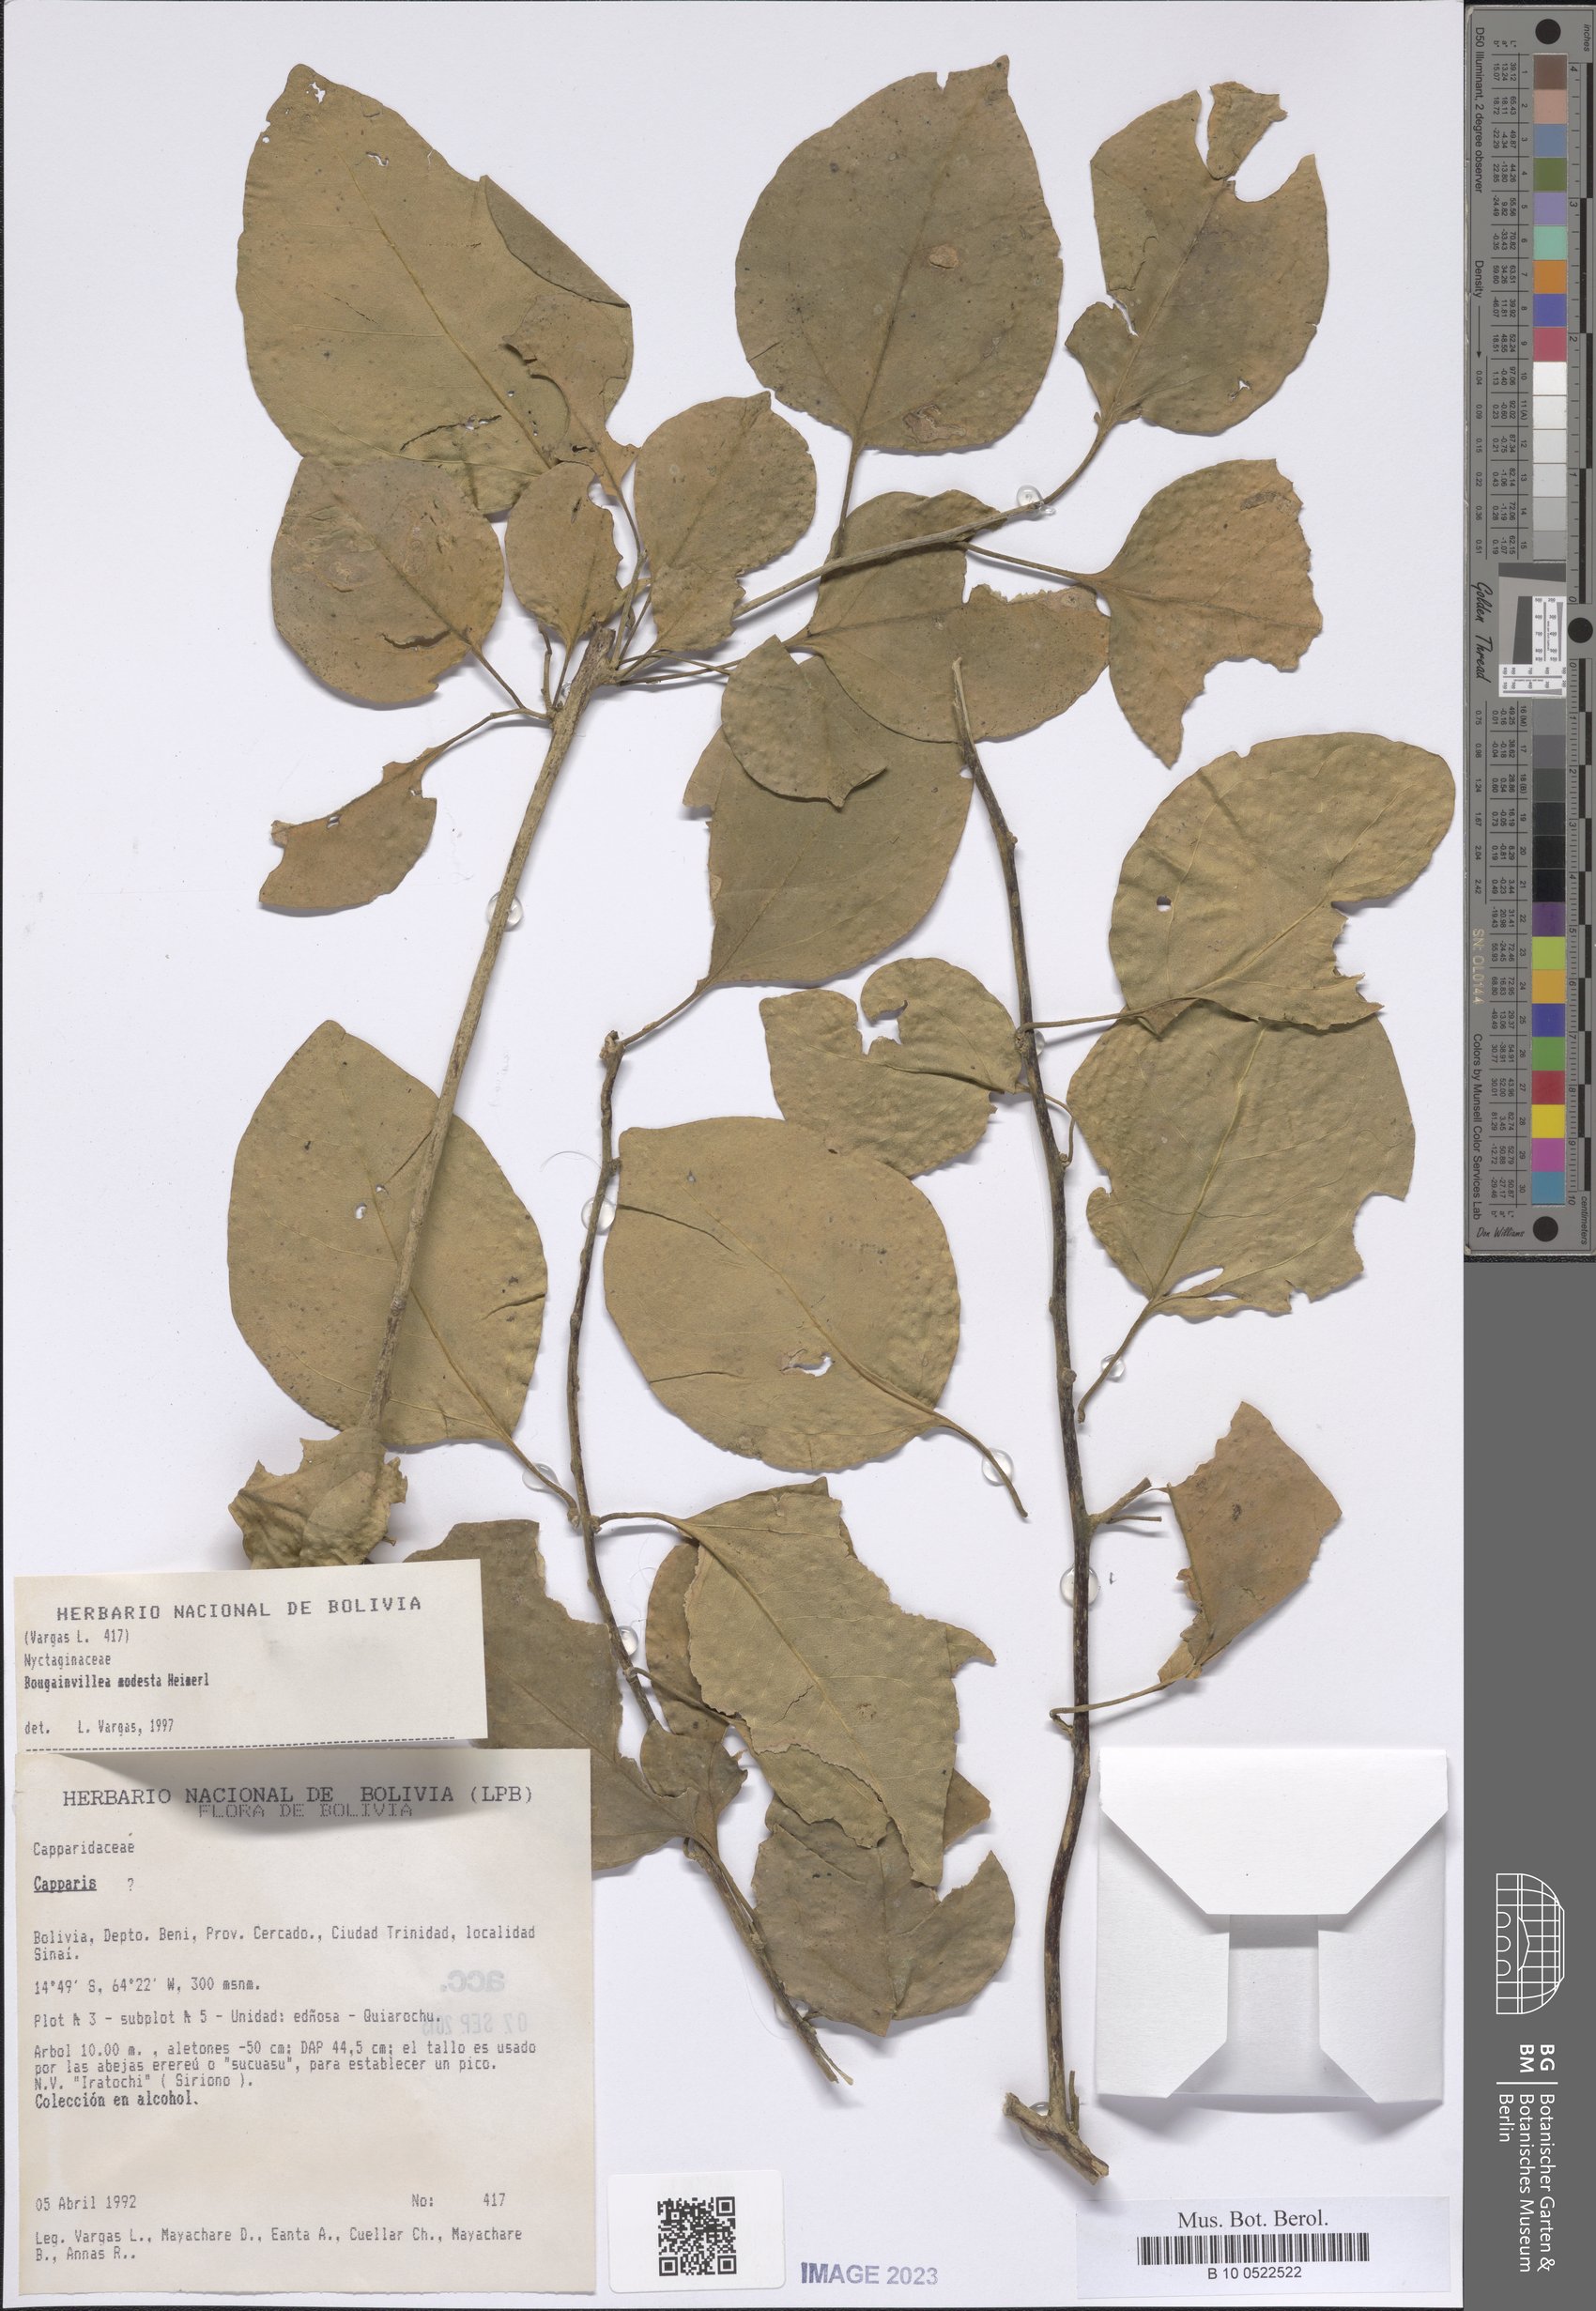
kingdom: Plantae
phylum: Tracheophyta
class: Magnoliopsida
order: Caryophyllales
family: Nyctaginaceae
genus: Bougainvillea
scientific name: Bougainvillea modesta
